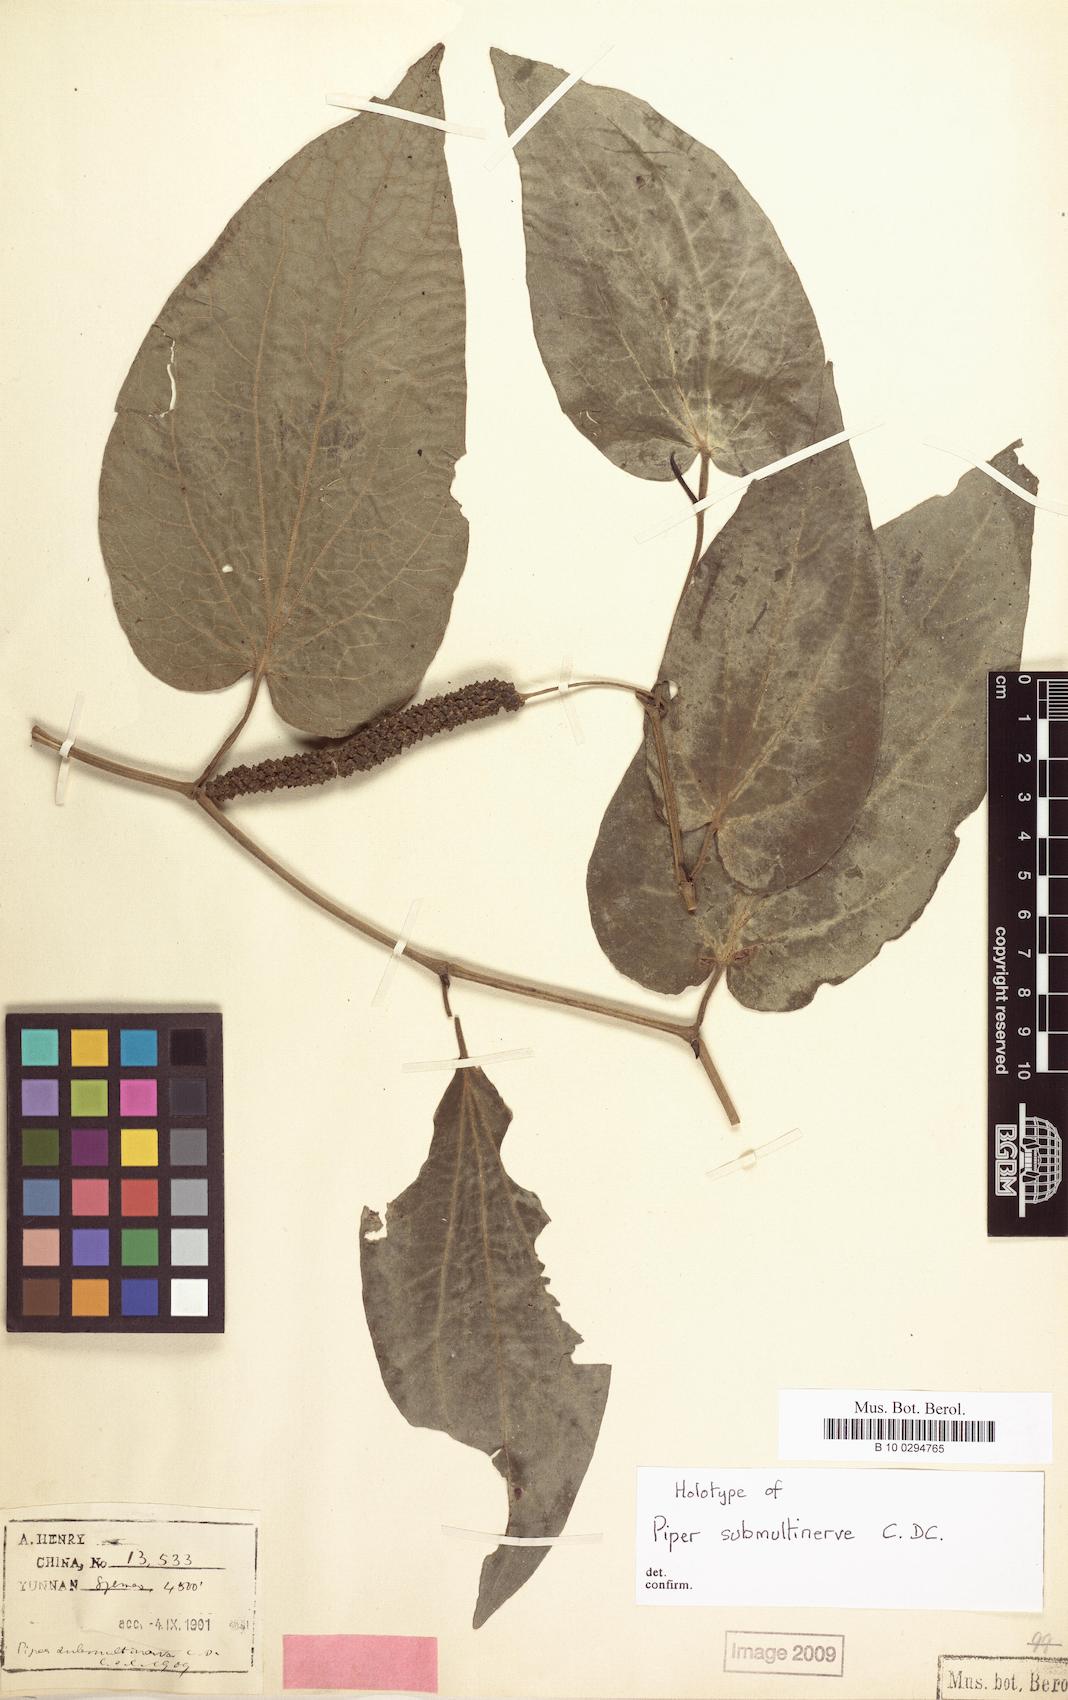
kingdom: Plantae
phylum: Tracheophyta
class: Magnoliopsida
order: Piperales
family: Piperaceae
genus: Piper
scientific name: Piper submultinerve
